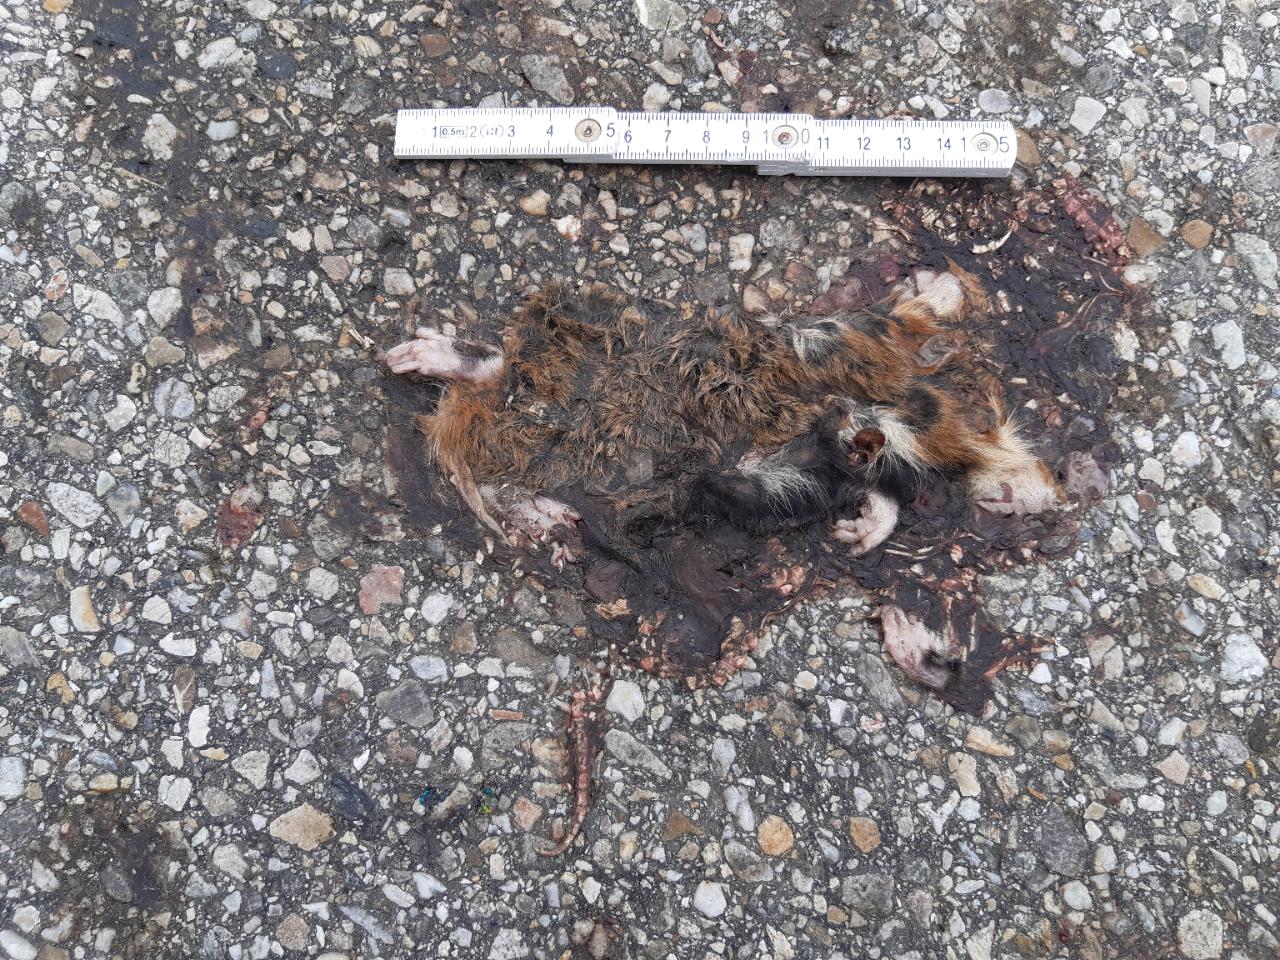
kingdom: Animalia
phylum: Chordata
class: Mammalia
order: Rodentia
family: Cricetidae
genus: Cricetus
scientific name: Cricetus cricetus
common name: Common hamster
